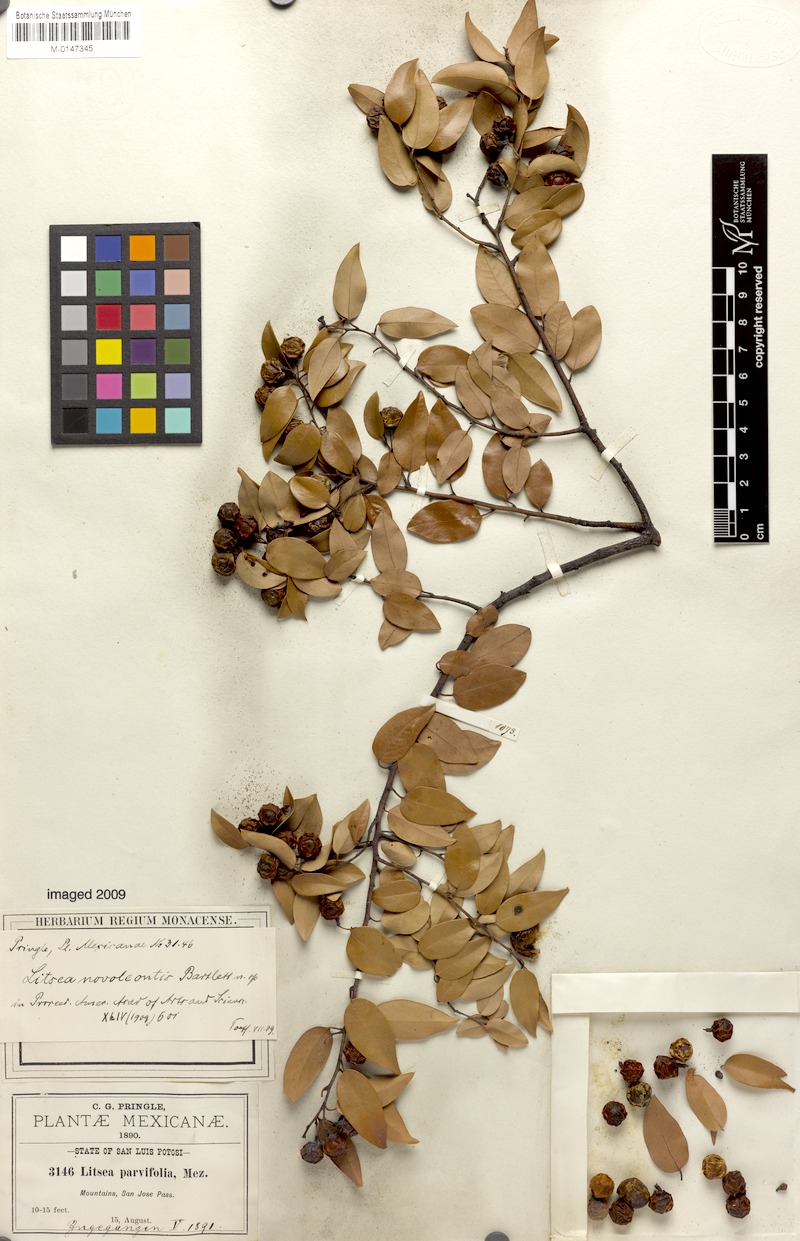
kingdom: Plantae
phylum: Tracheophyta
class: Magnoliopsida
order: Laurales
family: Lauraceae
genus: Litsea
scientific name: Litsea novoleontis
